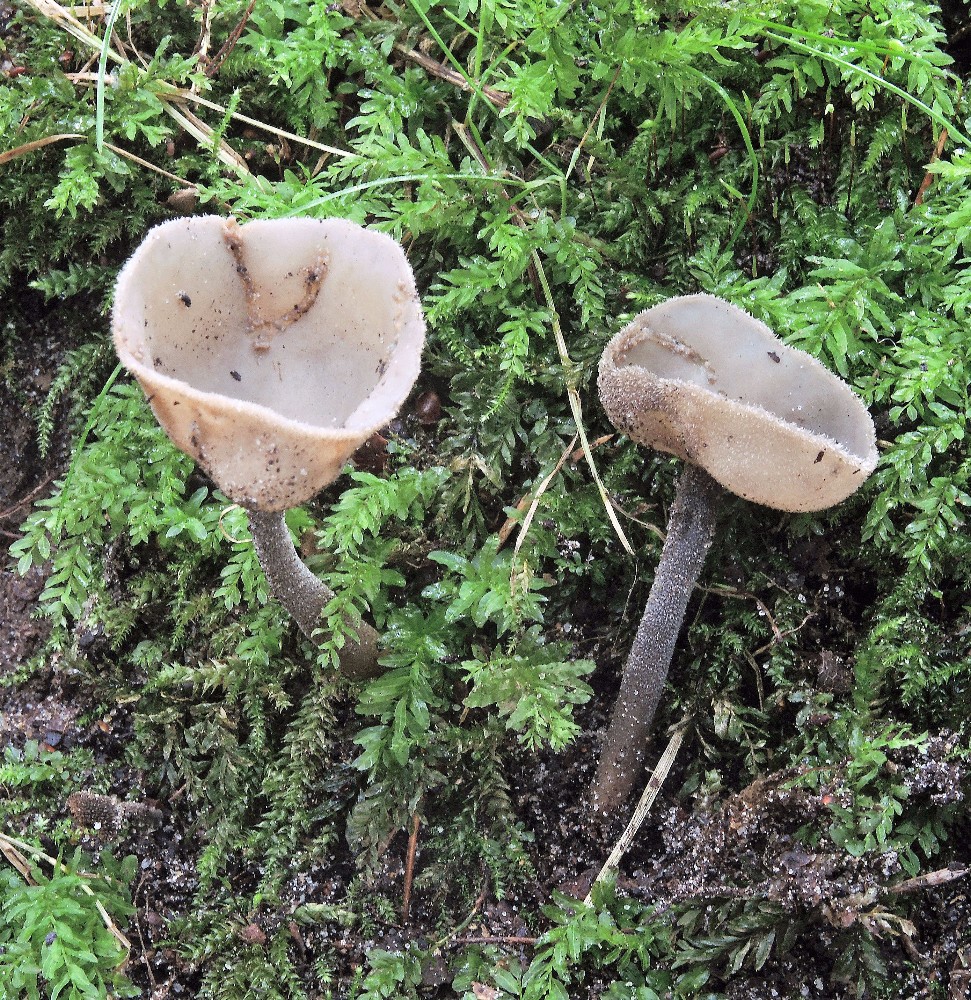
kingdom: Fungi
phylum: Ascomycota
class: Pezizomycetes
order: Pezizales
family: Helvellaceae
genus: Helvella
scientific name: Helvella macropus
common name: højstokket foldhat
